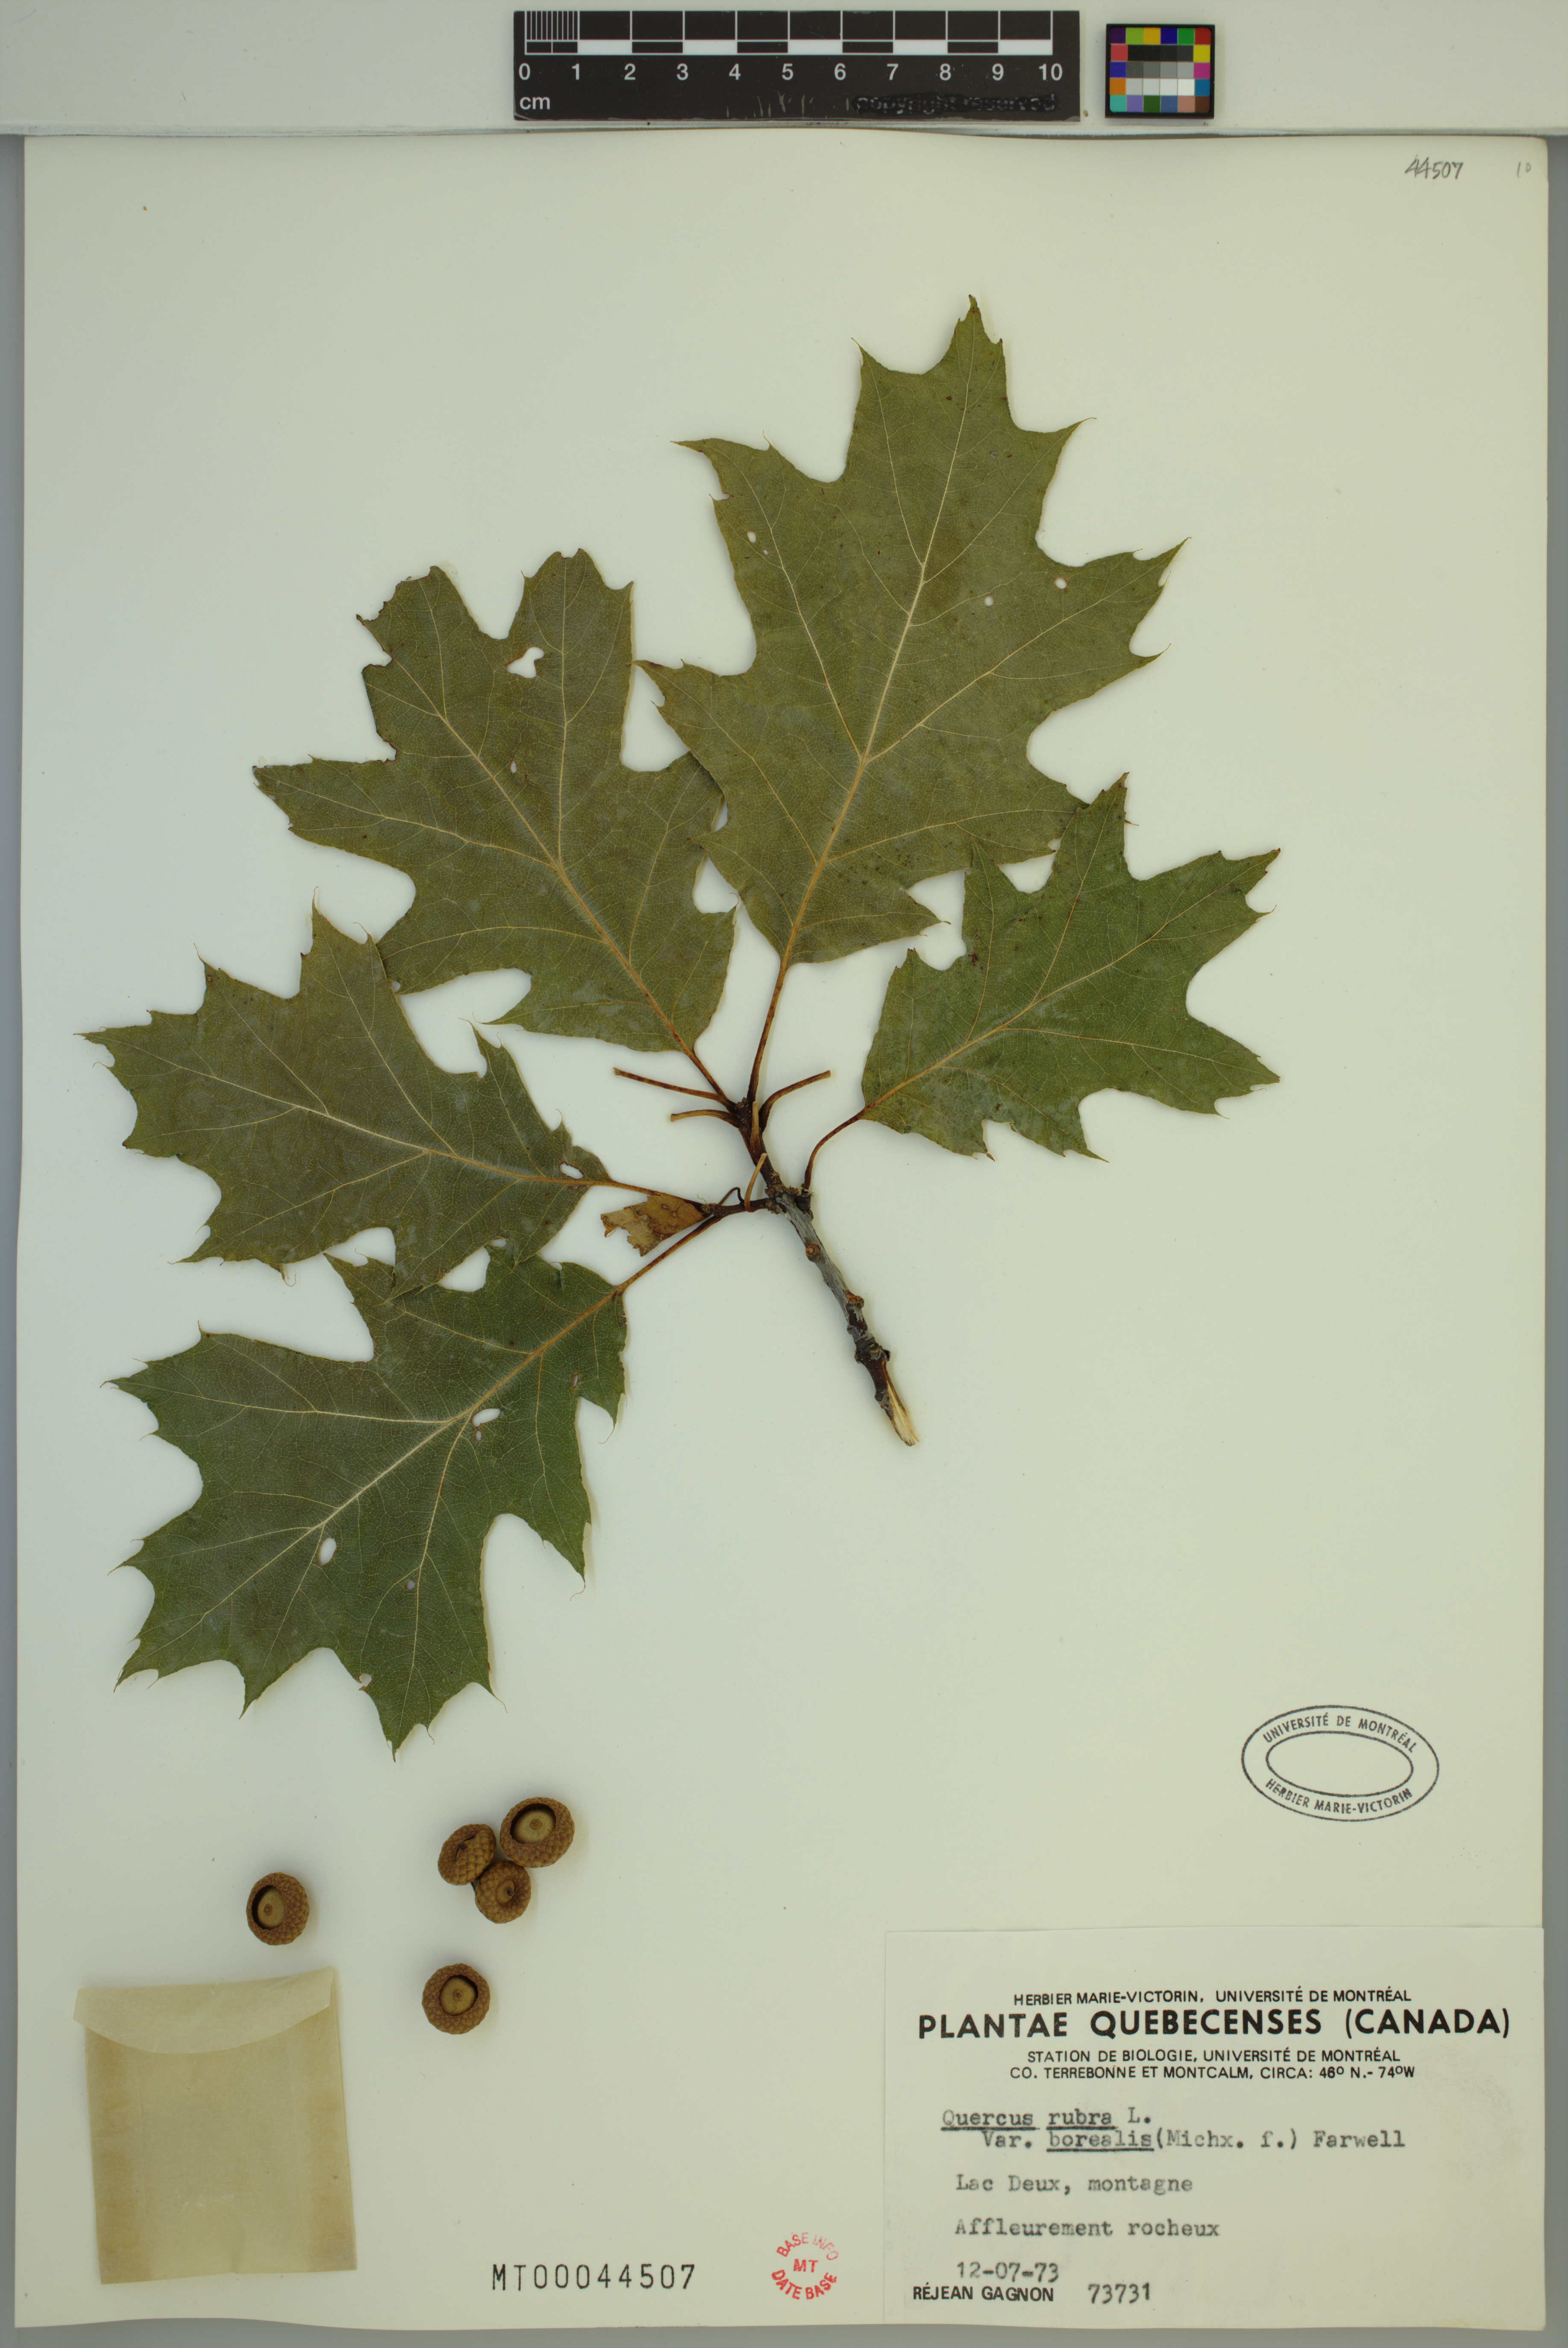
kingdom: Plantae
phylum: Tracheophyta
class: Magnoliopsida
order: Fagales
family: Fagaceae
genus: Quercus
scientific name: Quercus rubra
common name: Red oak
